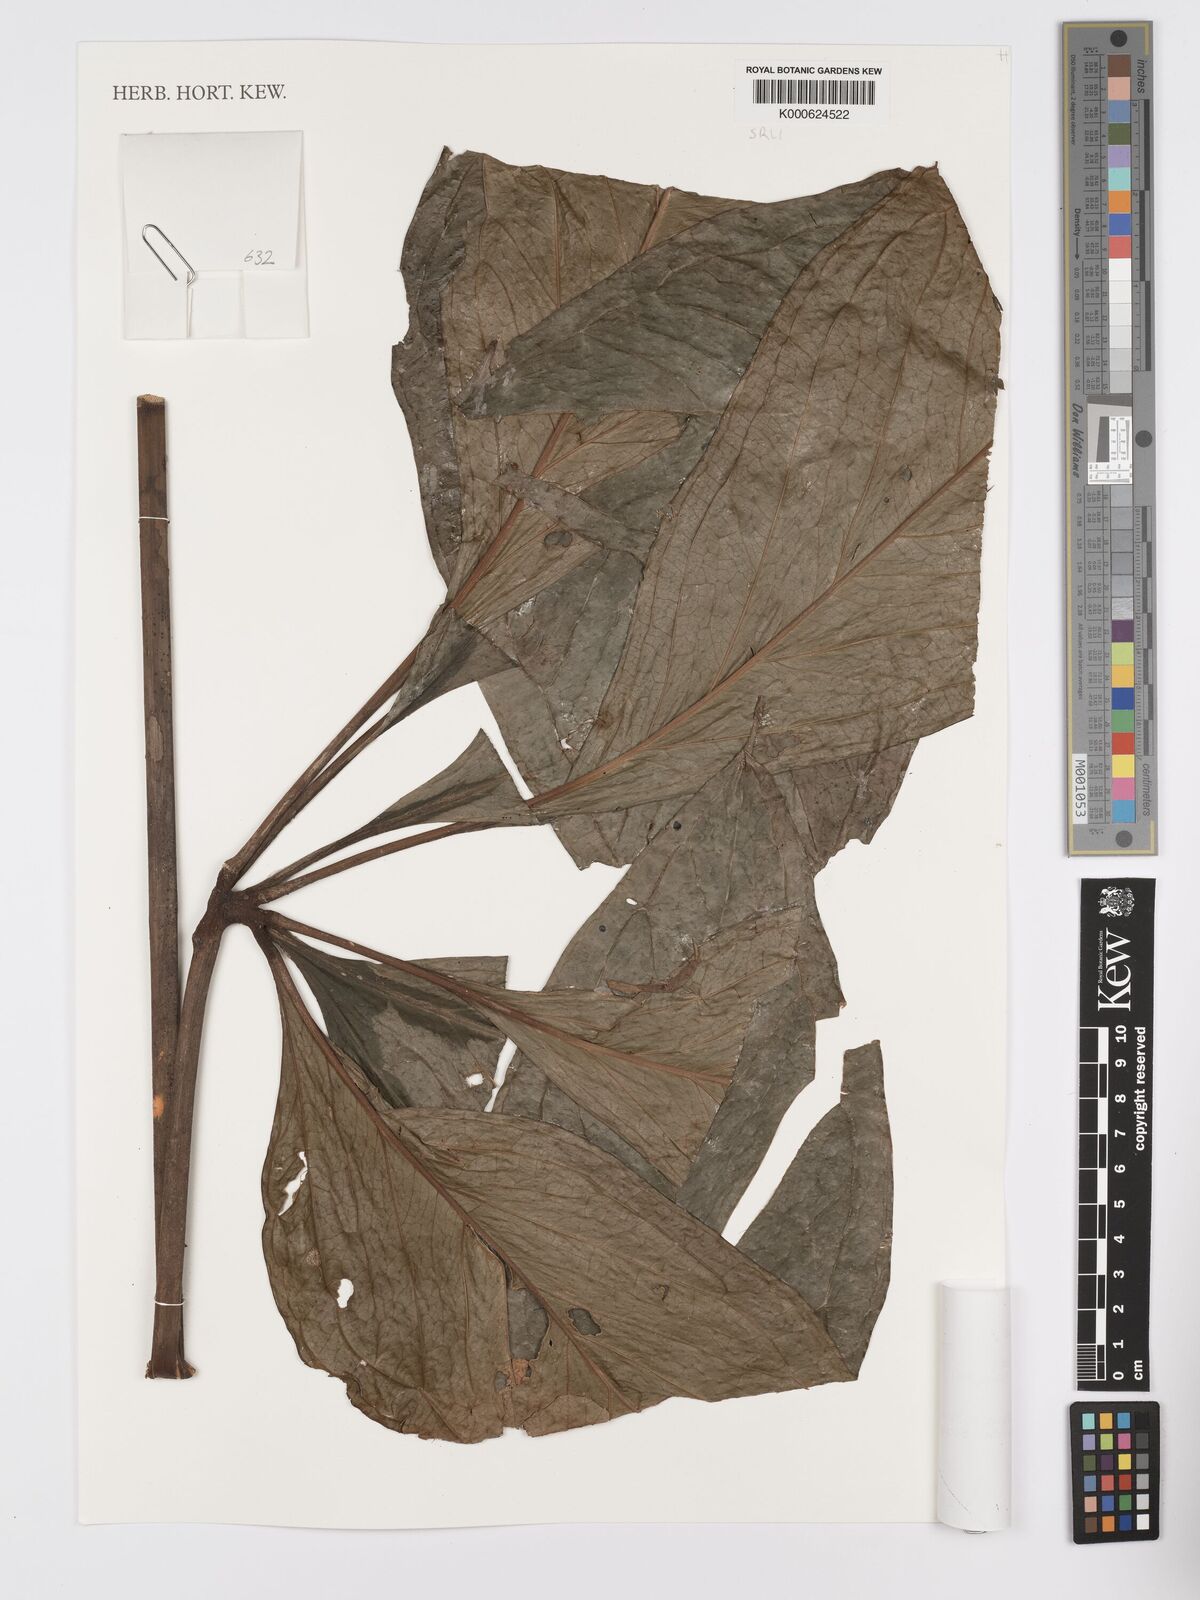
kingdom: Plantae
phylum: Tracheophyta
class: Liliopsida
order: Alismatales
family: Araceae
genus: Anthurium
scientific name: Anthurium sinuatum
